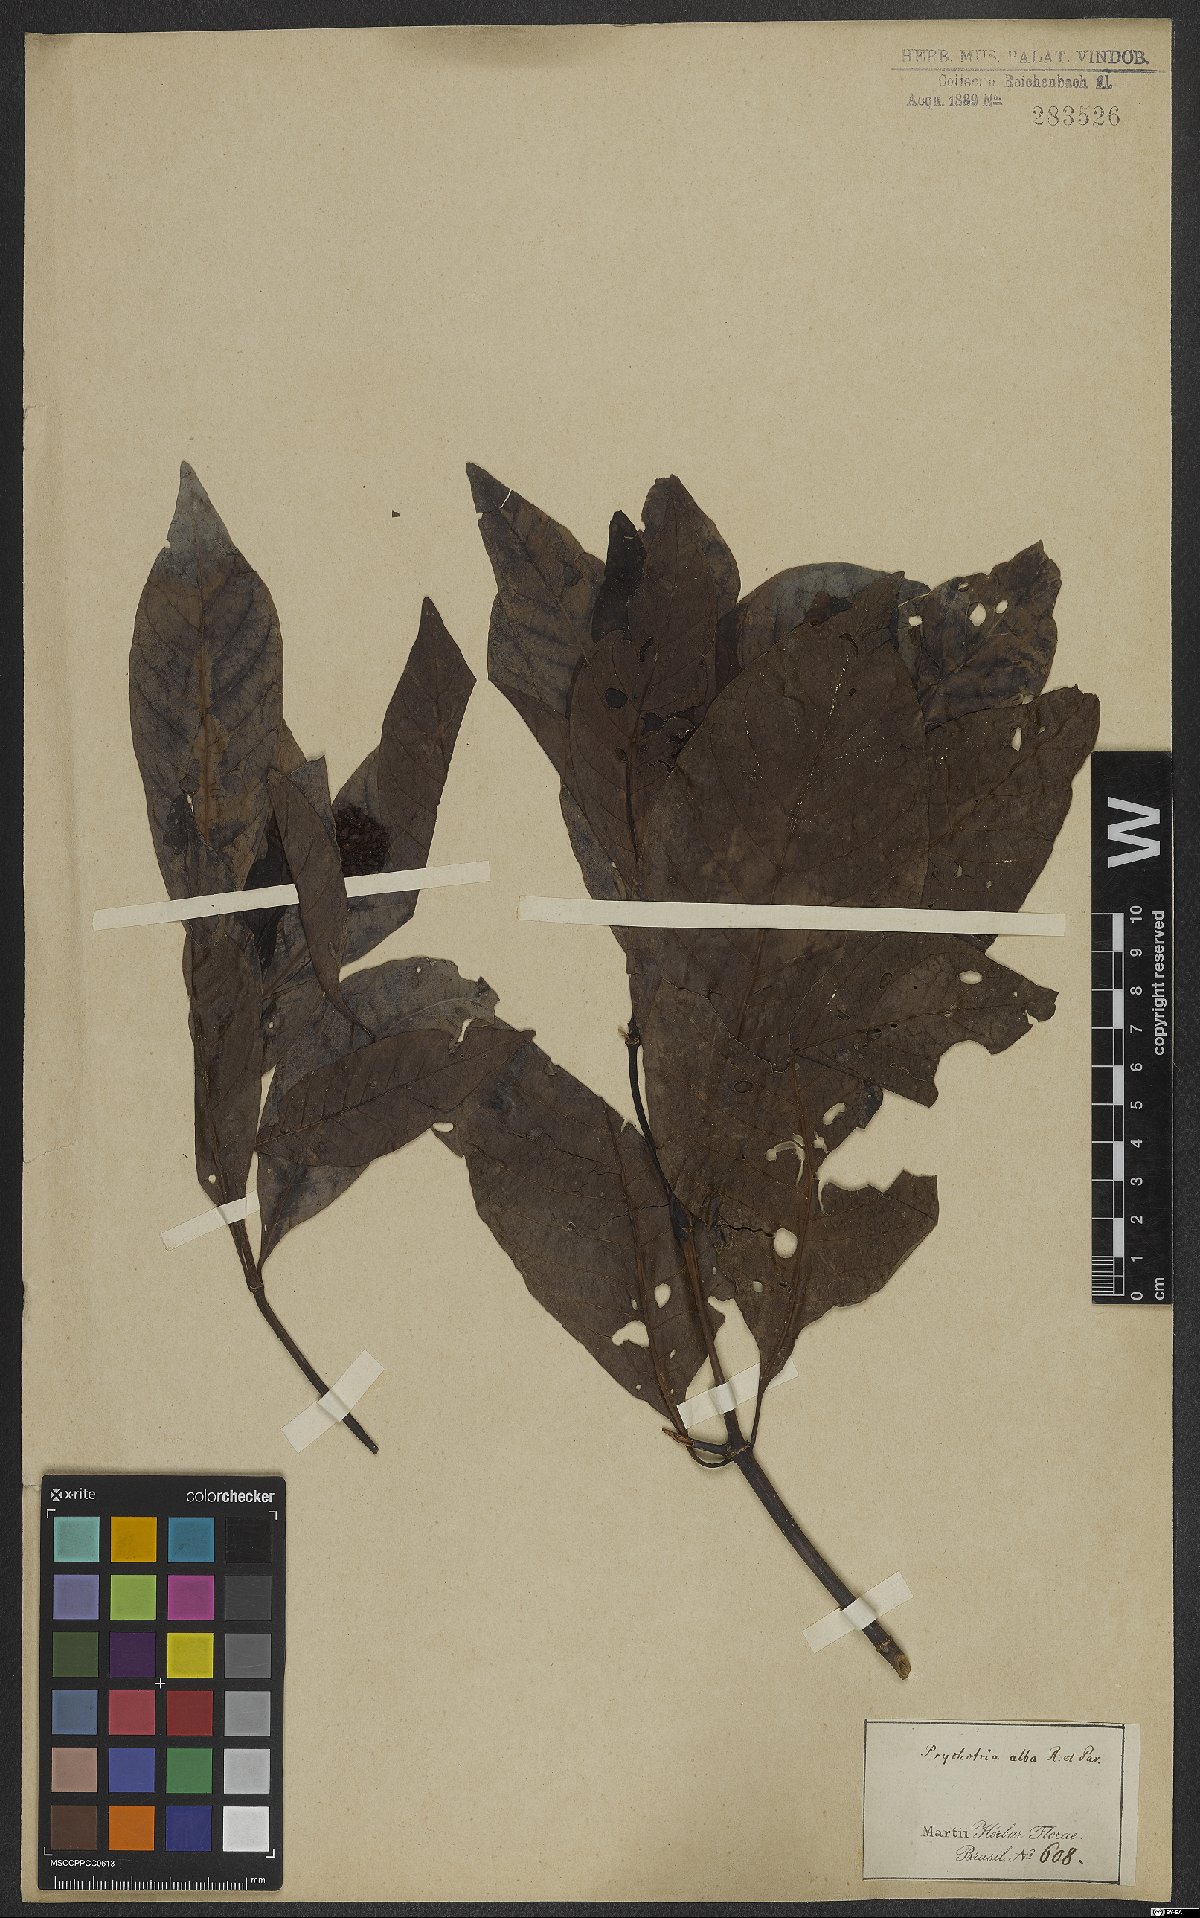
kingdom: Plantae
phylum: Tracheophyta
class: Magnoliopsida
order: Gentianales
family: Rubiaceae
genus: Psychotria
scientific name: Psychotria alba
